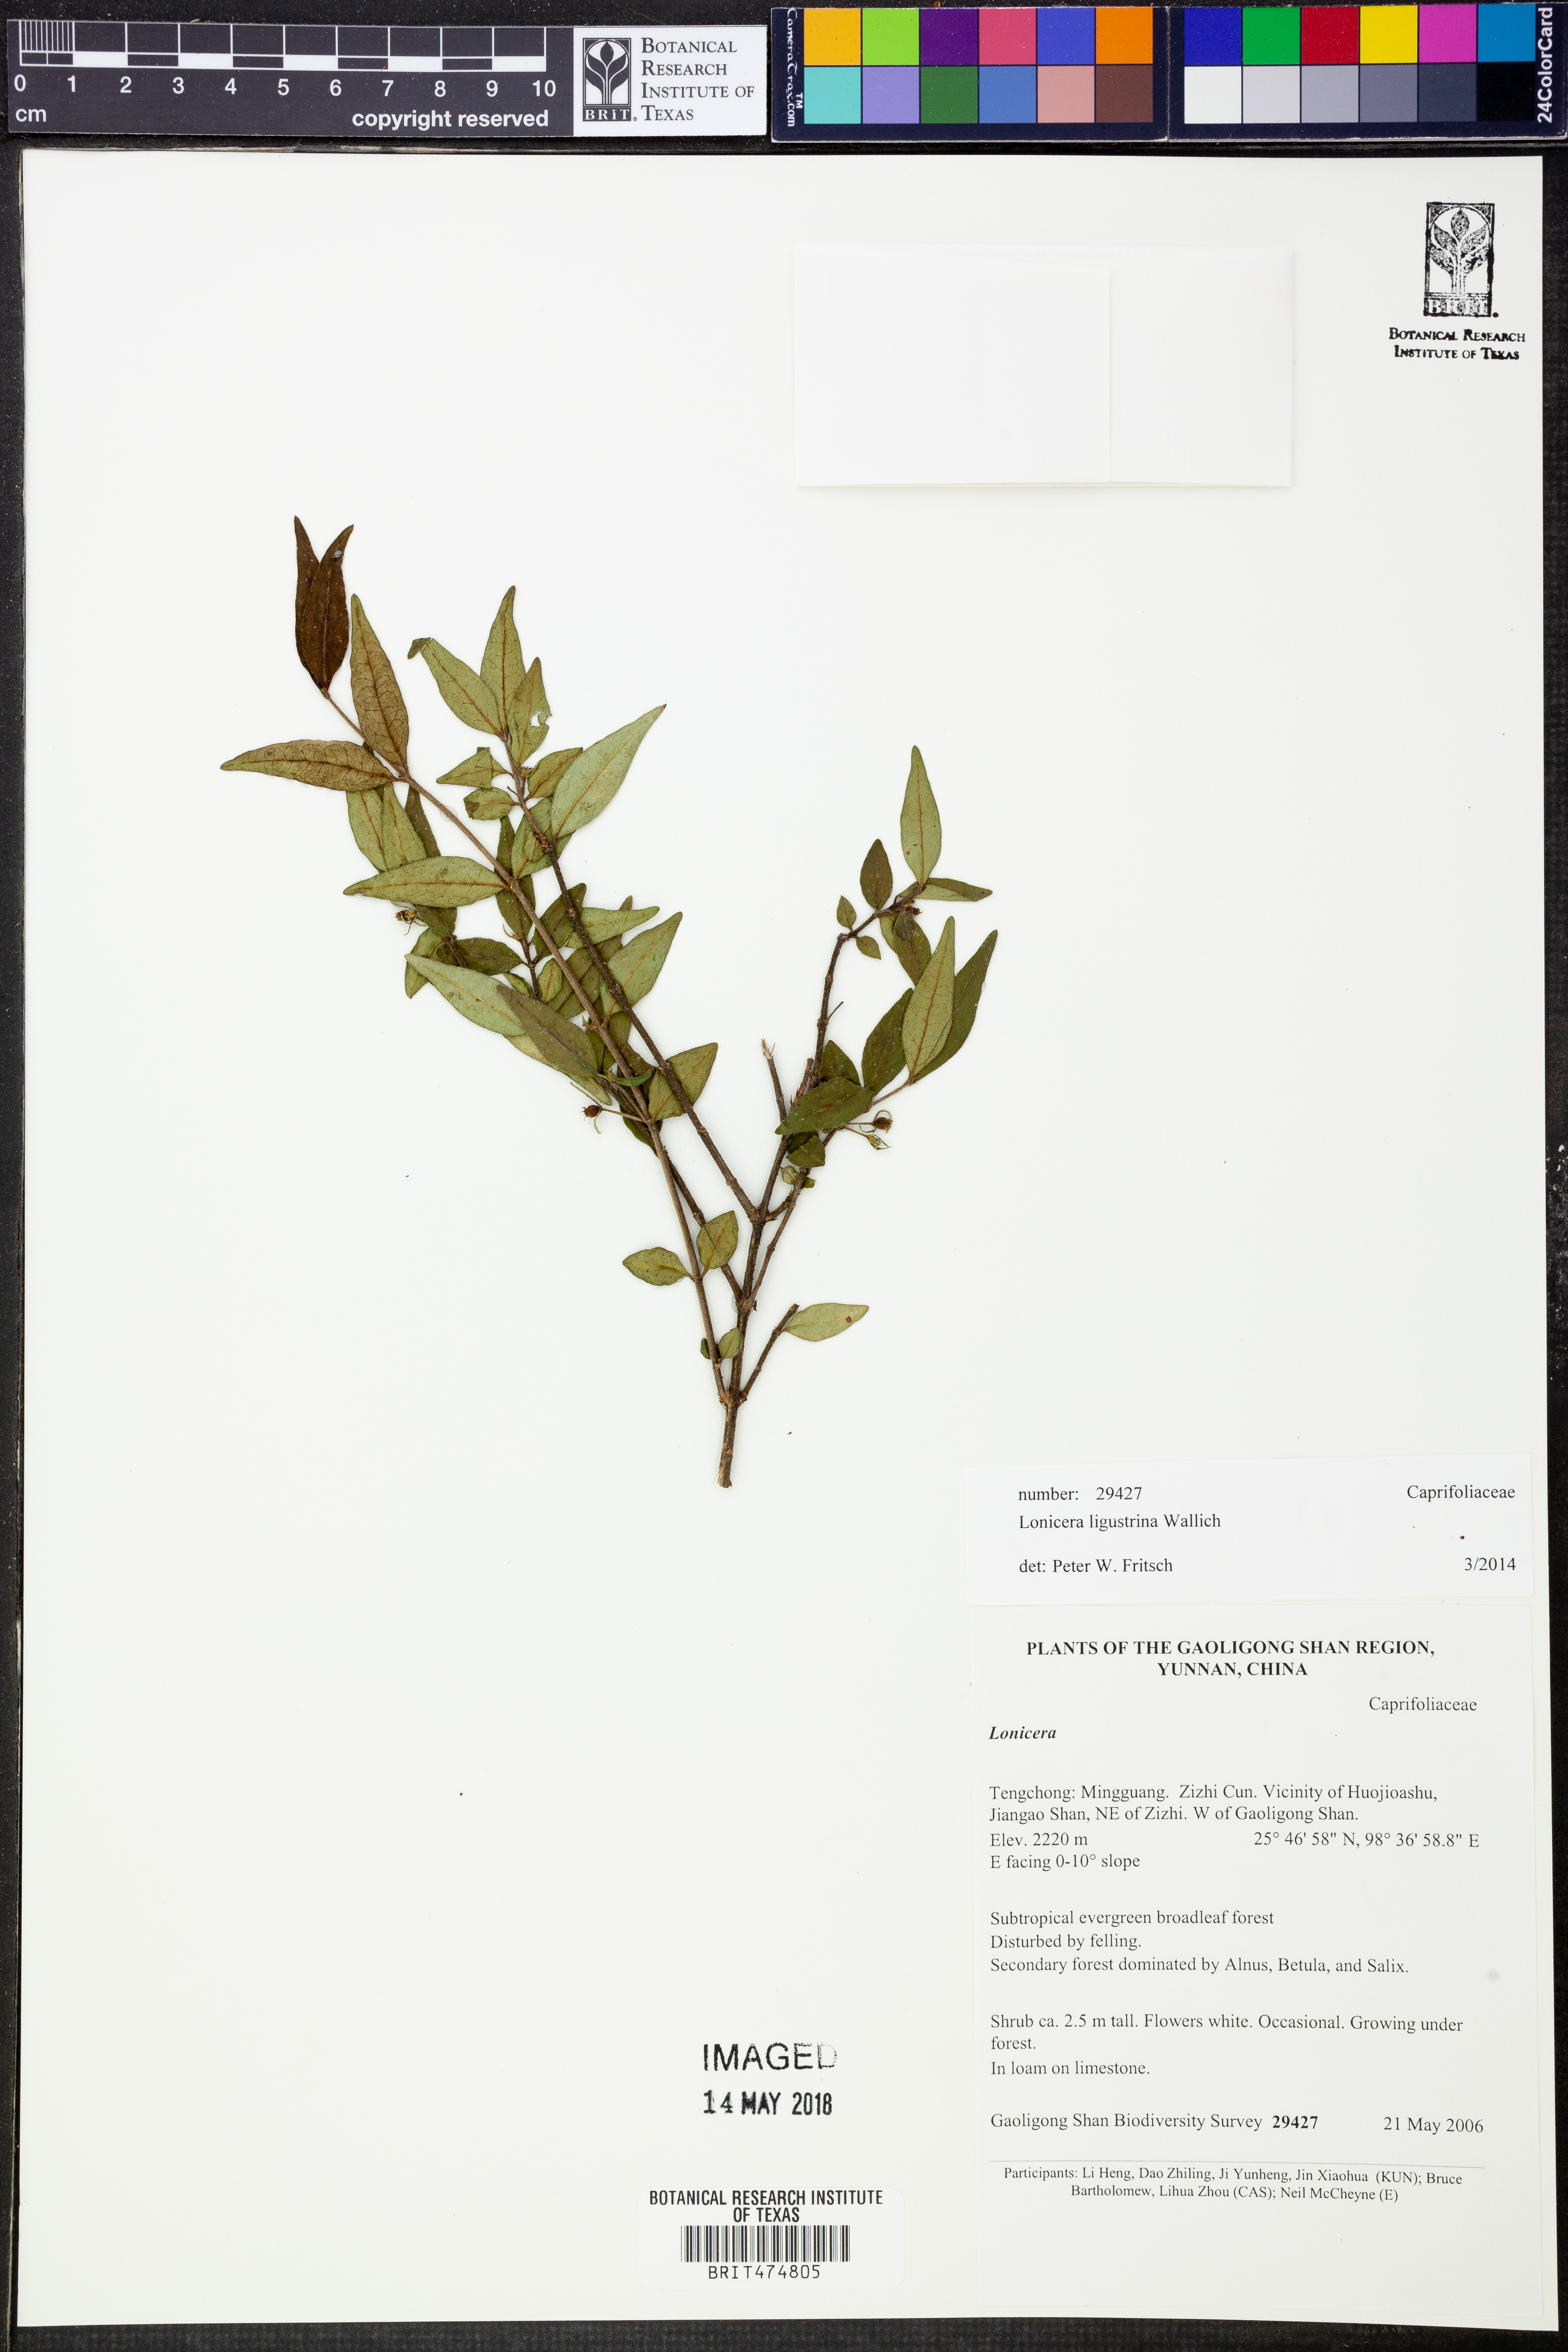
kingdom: Plantae
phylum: Tracheophyta
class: Magnoliopsida
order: Dipsacales
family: Caprifoliaceae
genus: Lonicera
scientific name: Lonicera ligustrina
